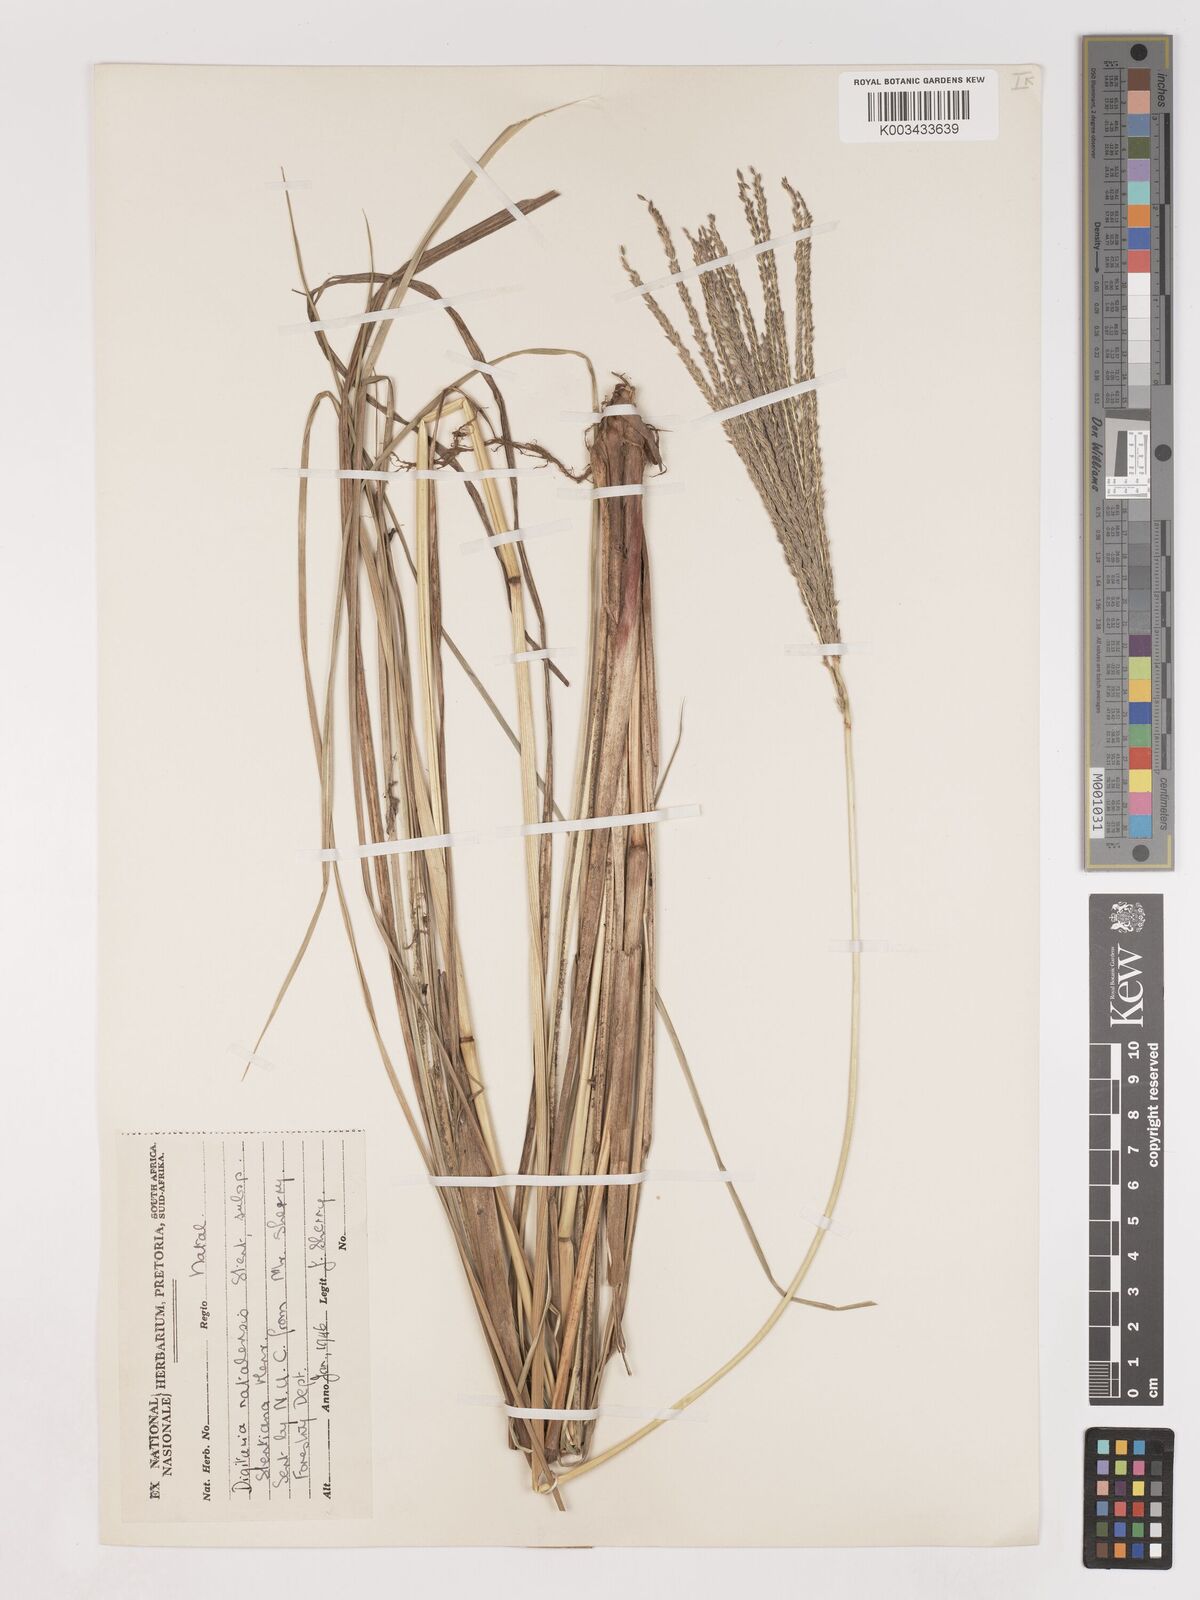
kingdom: Plantae
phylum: Tracheophyta
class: Liliopsida
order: Poales
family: Poaceae
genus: Digitaria
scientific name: Digitaria natalensis
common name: Coast finger grass
